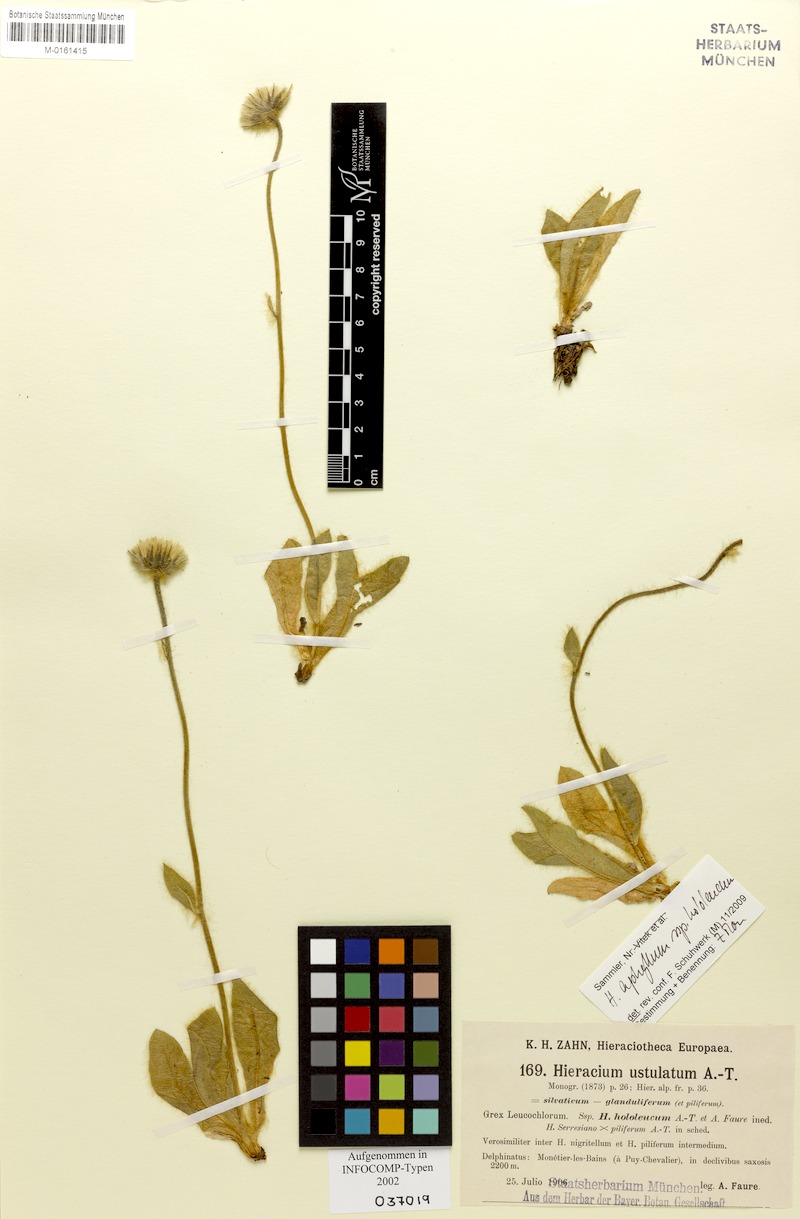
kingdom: Plantae
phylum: Tracheophyta
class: Magnoliopsida
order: Asterales
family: Asteraceae
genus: Hieracium
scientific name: Hieracium aphyllum
